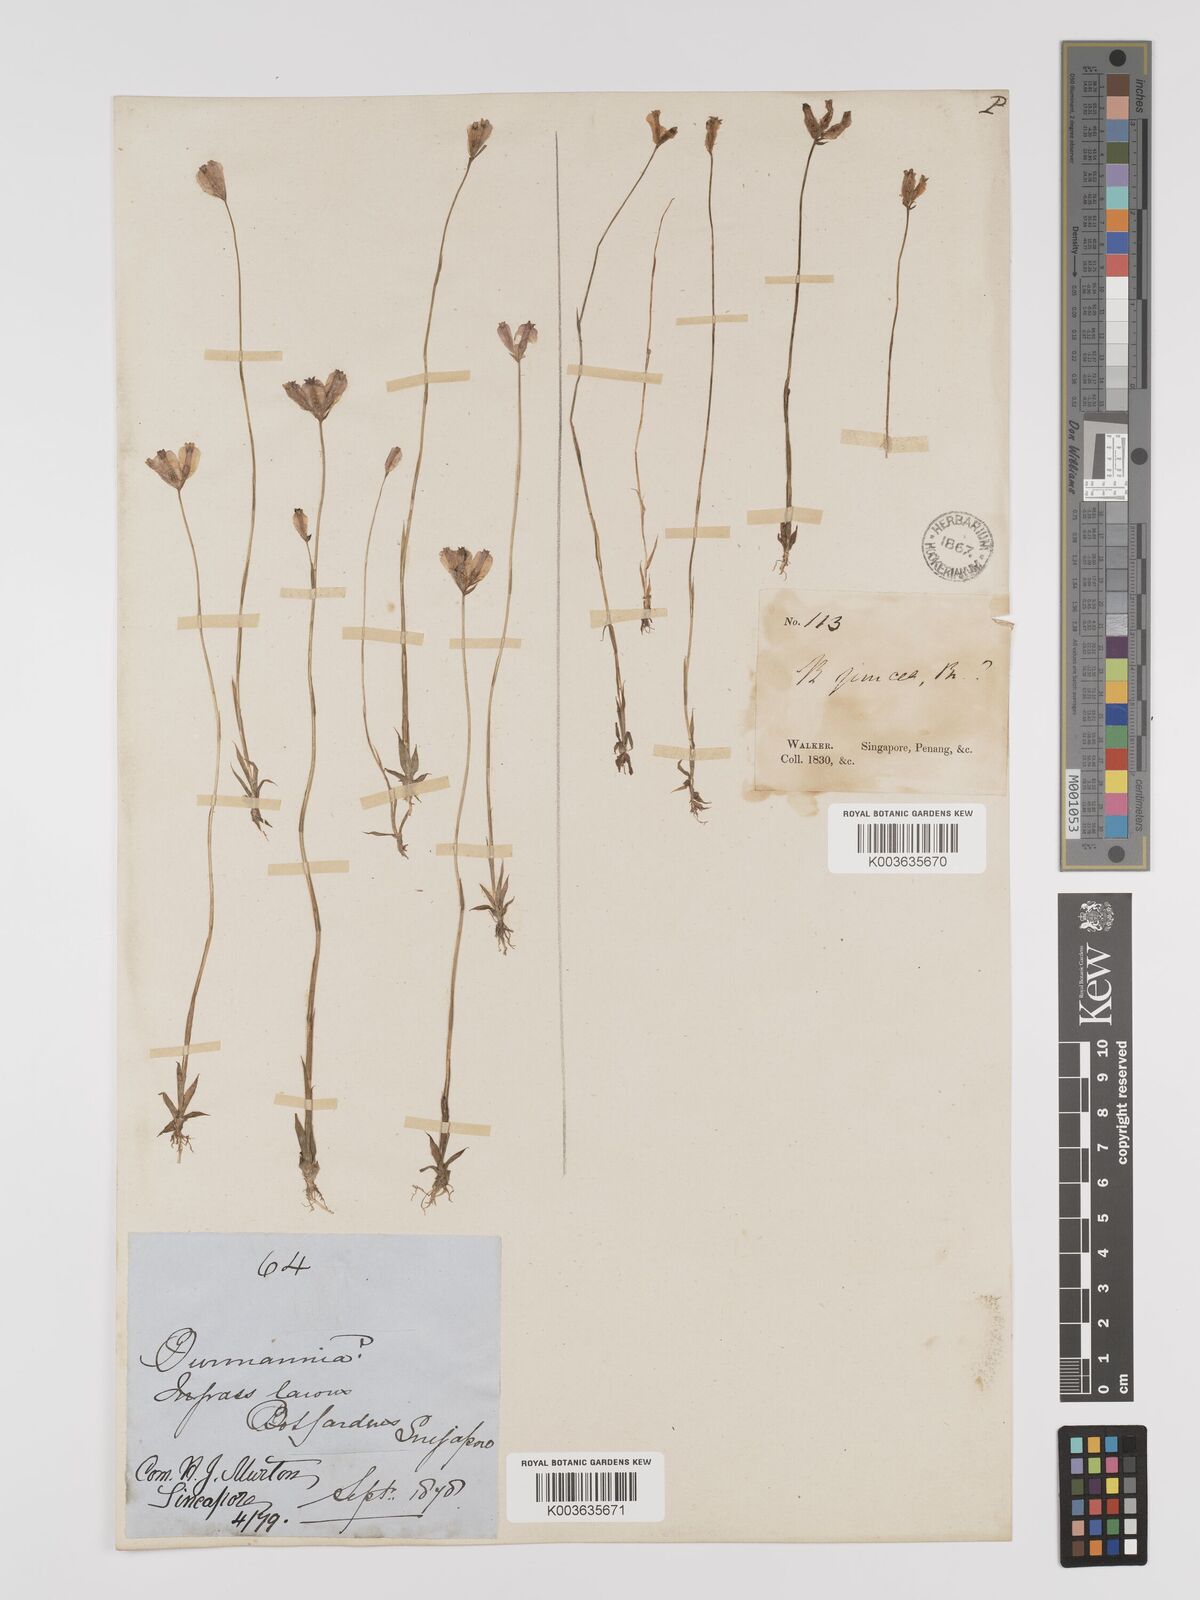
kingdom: Plantae
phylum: Tracheophyta
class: Liliopsida
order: Dioscoreales
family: Burmanniaceae
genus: Burmannia
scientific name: Burmannia coelestis
